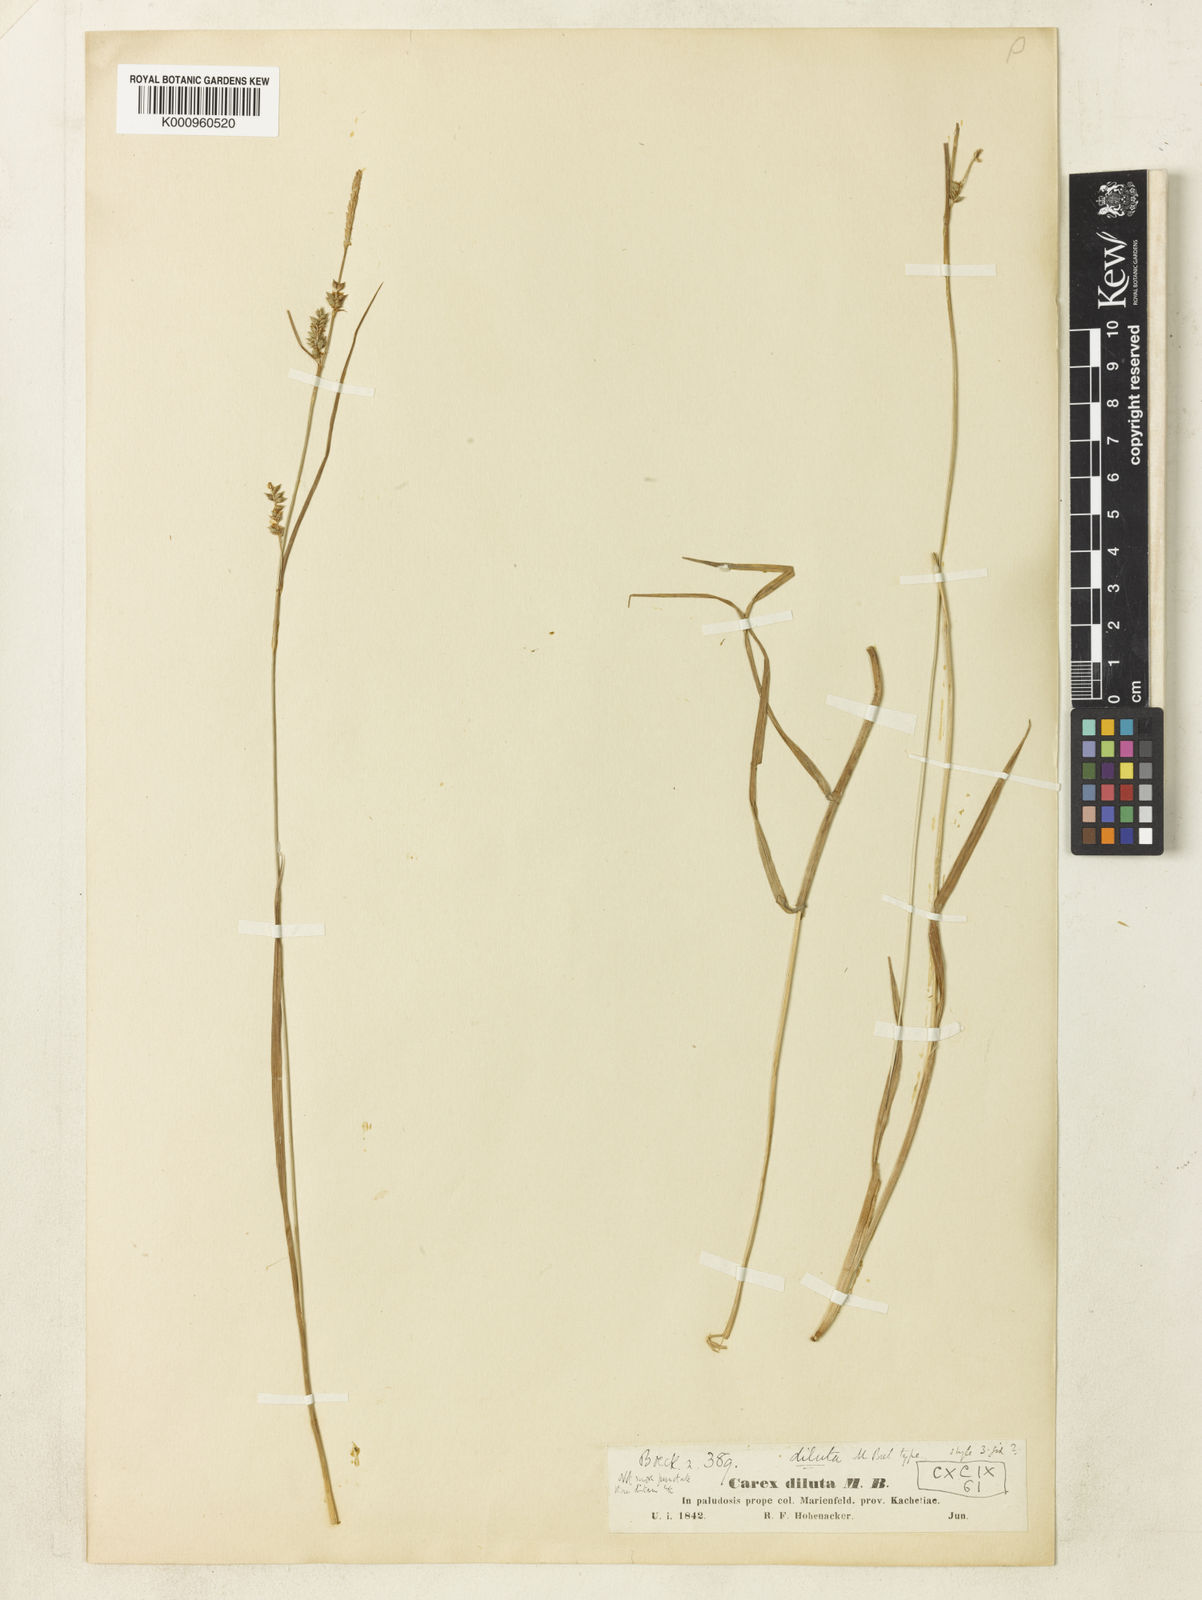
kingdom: Plantae
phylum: Tracheophyta
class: Liliopsida
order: Poales
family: Cyperaceae
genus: Carex
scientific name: Carex diluta
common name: Sedge
